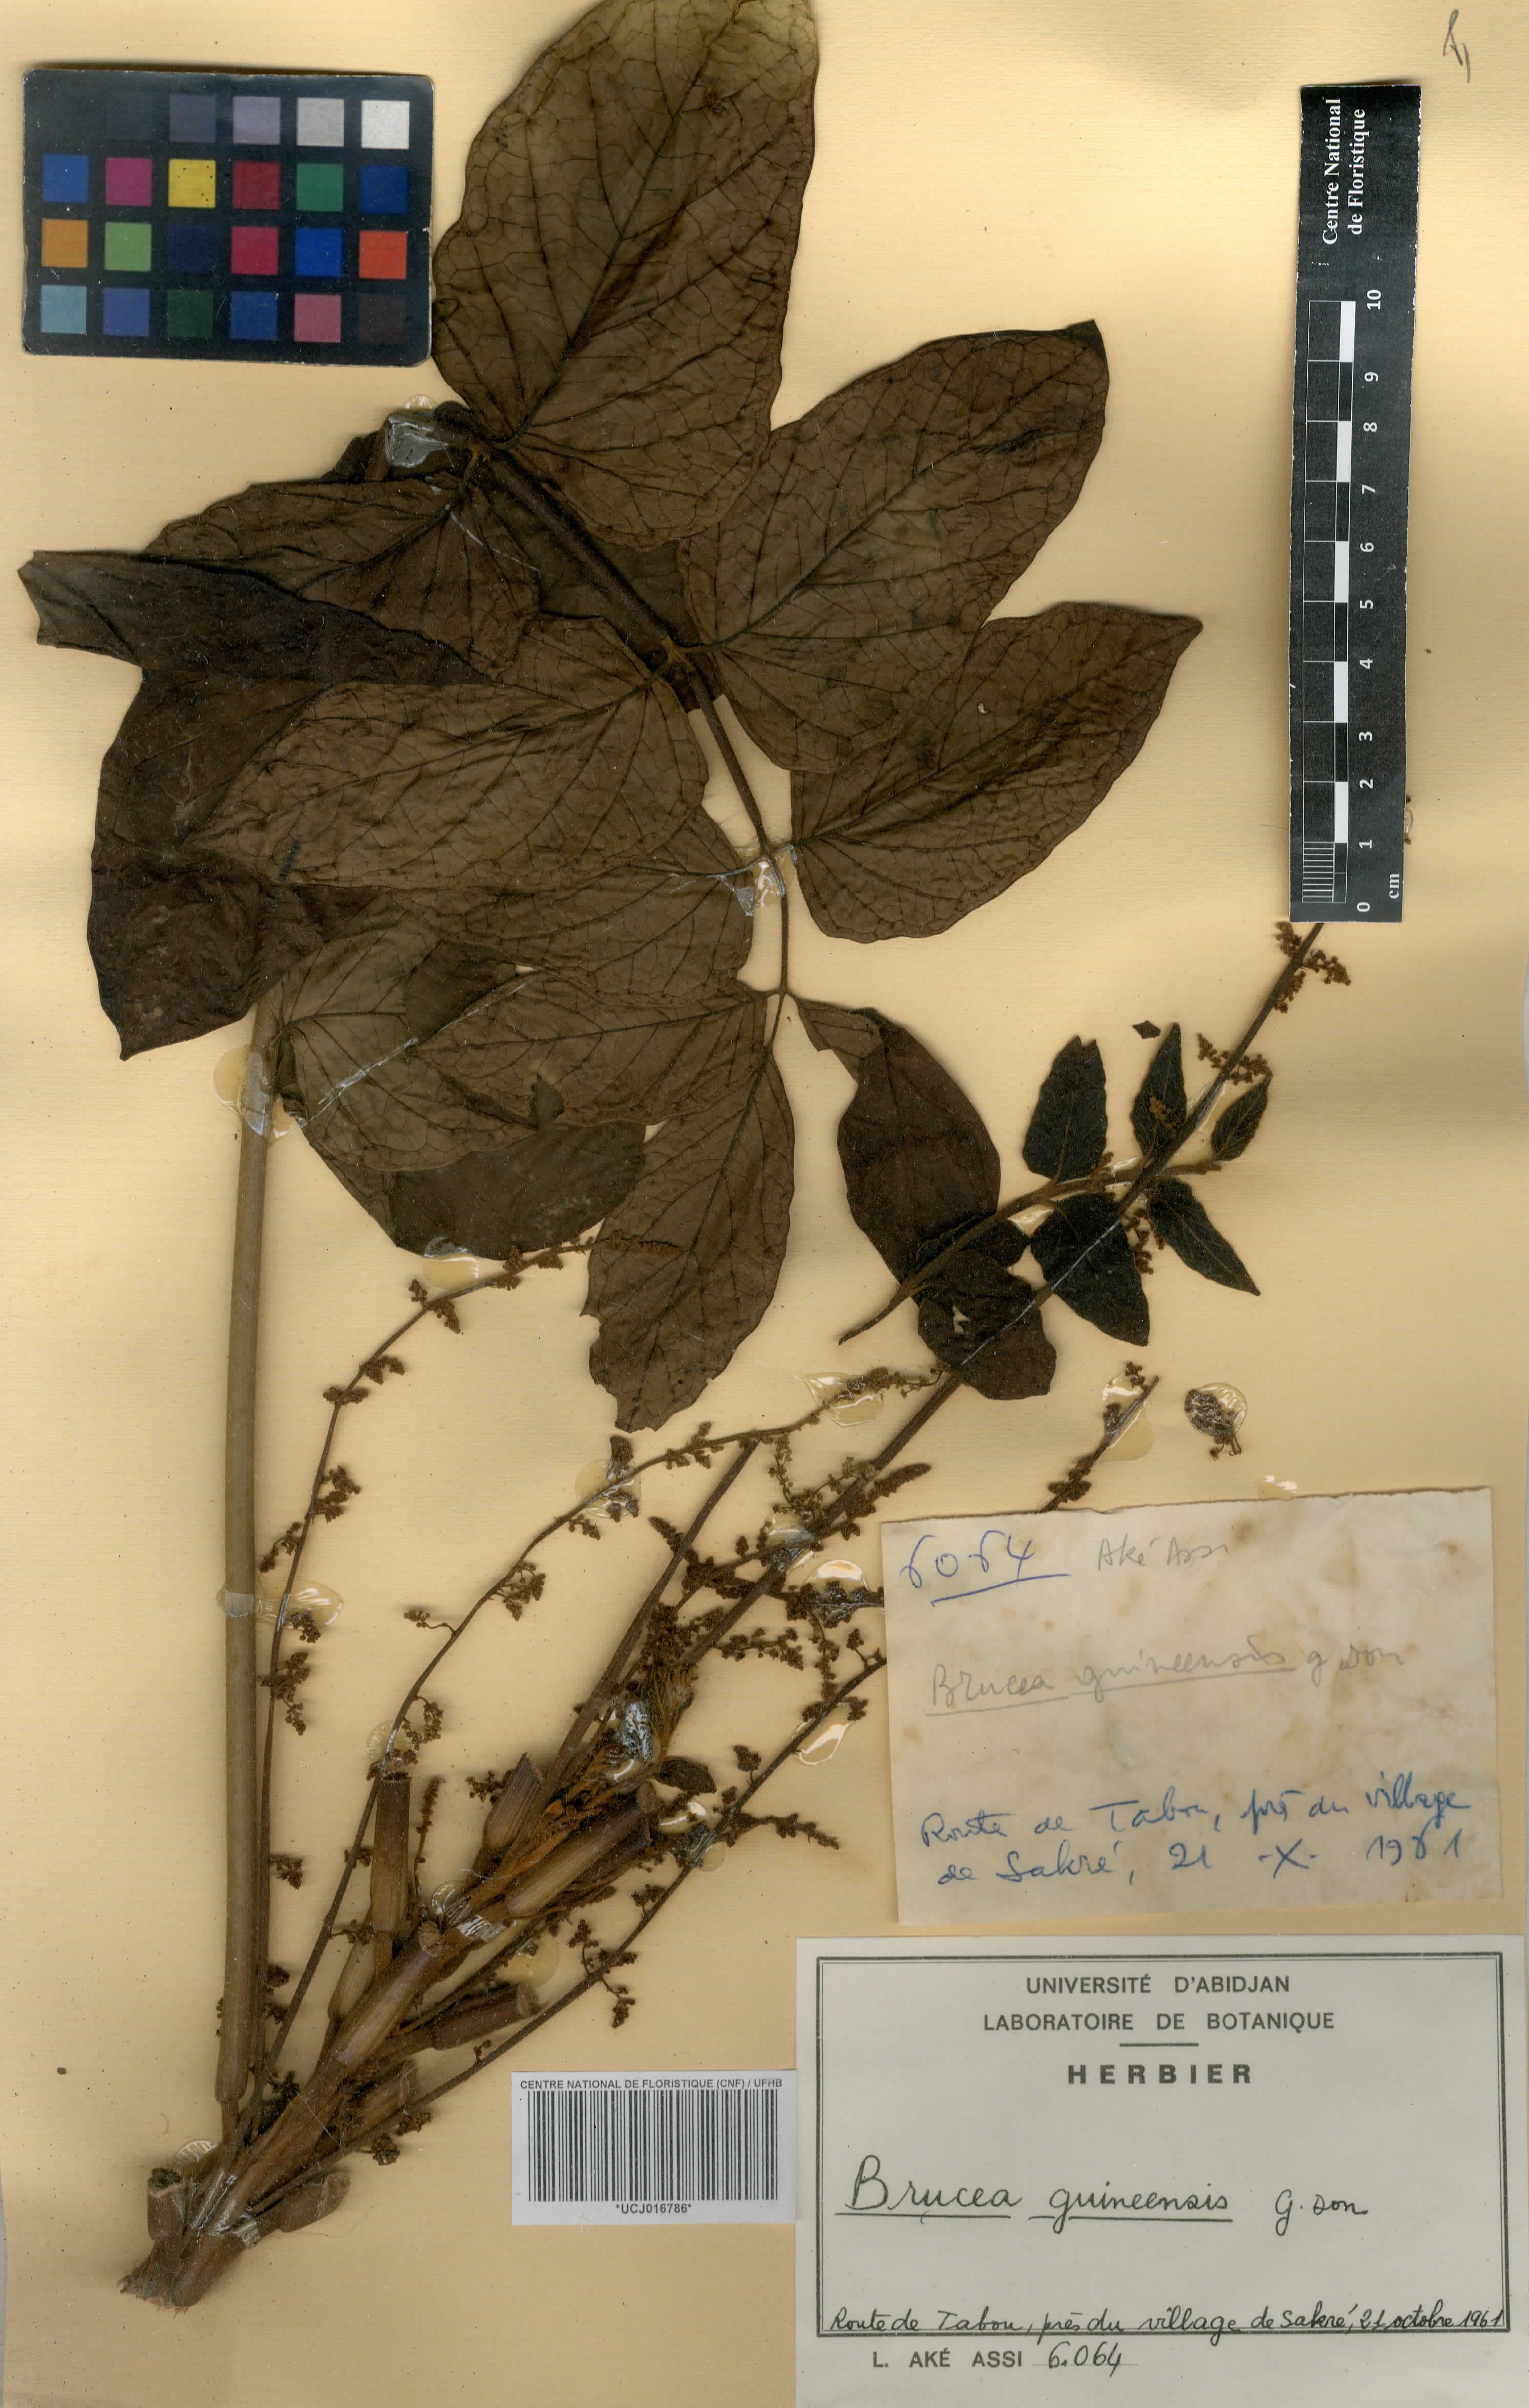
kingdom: Plantae
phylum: Tracheophyta
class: Magnoliopsida
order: Sapindales
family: Anacardiaceae
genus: Trichoscypha
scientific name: Trichoscypha smythei
